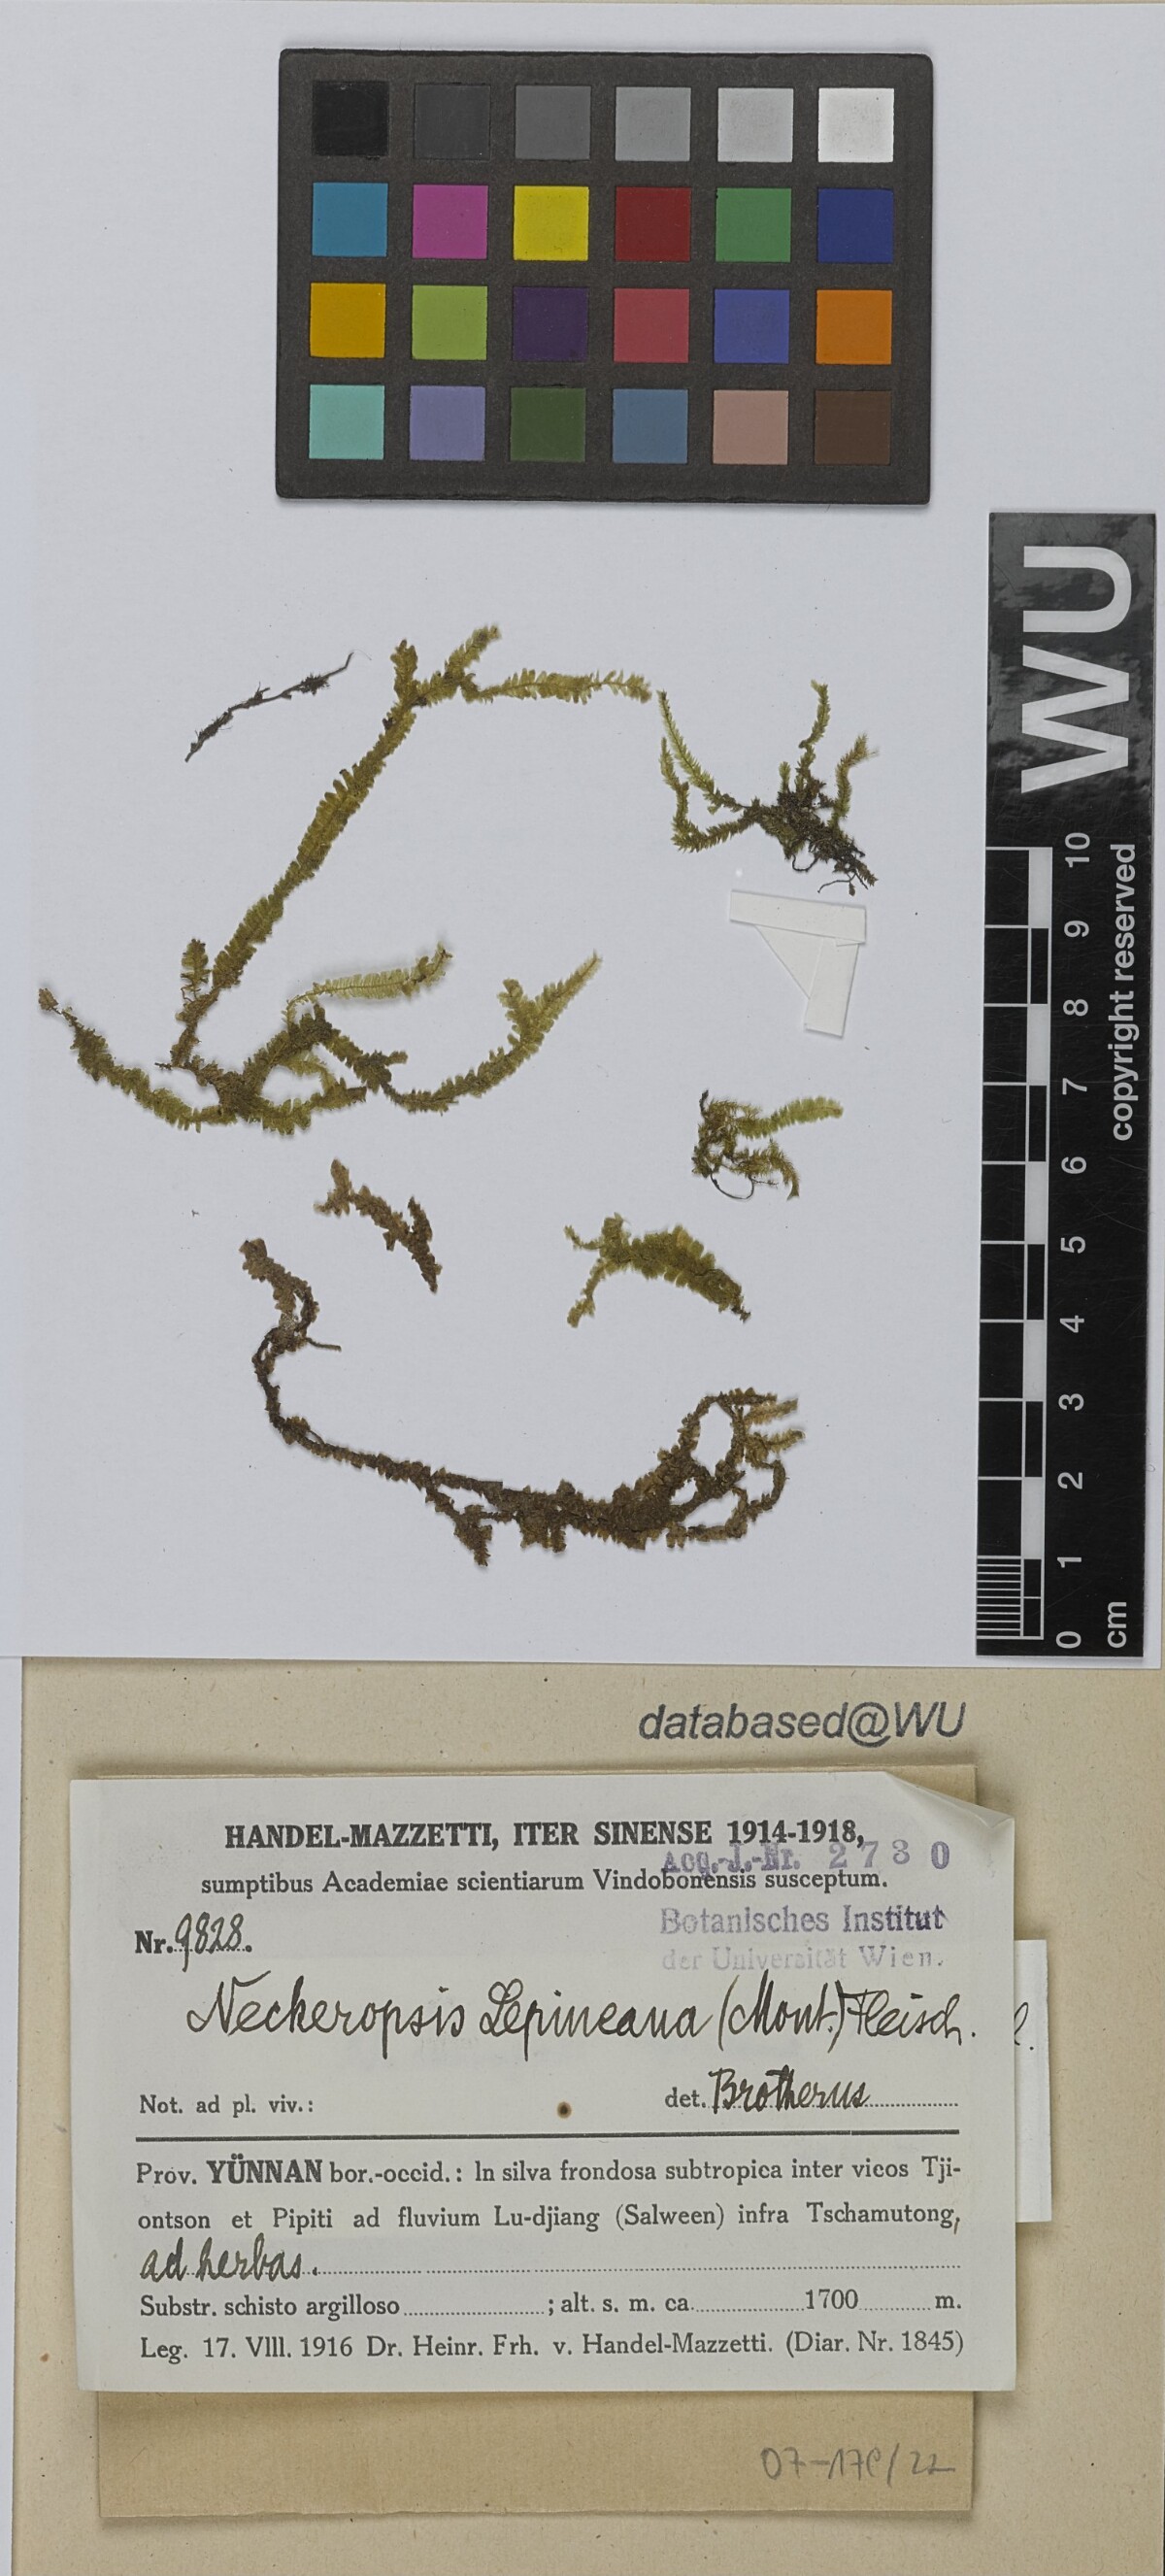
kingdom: Plantae
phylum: Bryophyta
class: Bryopsida
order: Hypnales
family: Neckeraceae
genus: Neckeromnion
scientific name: Neckeromnion lepineanum
